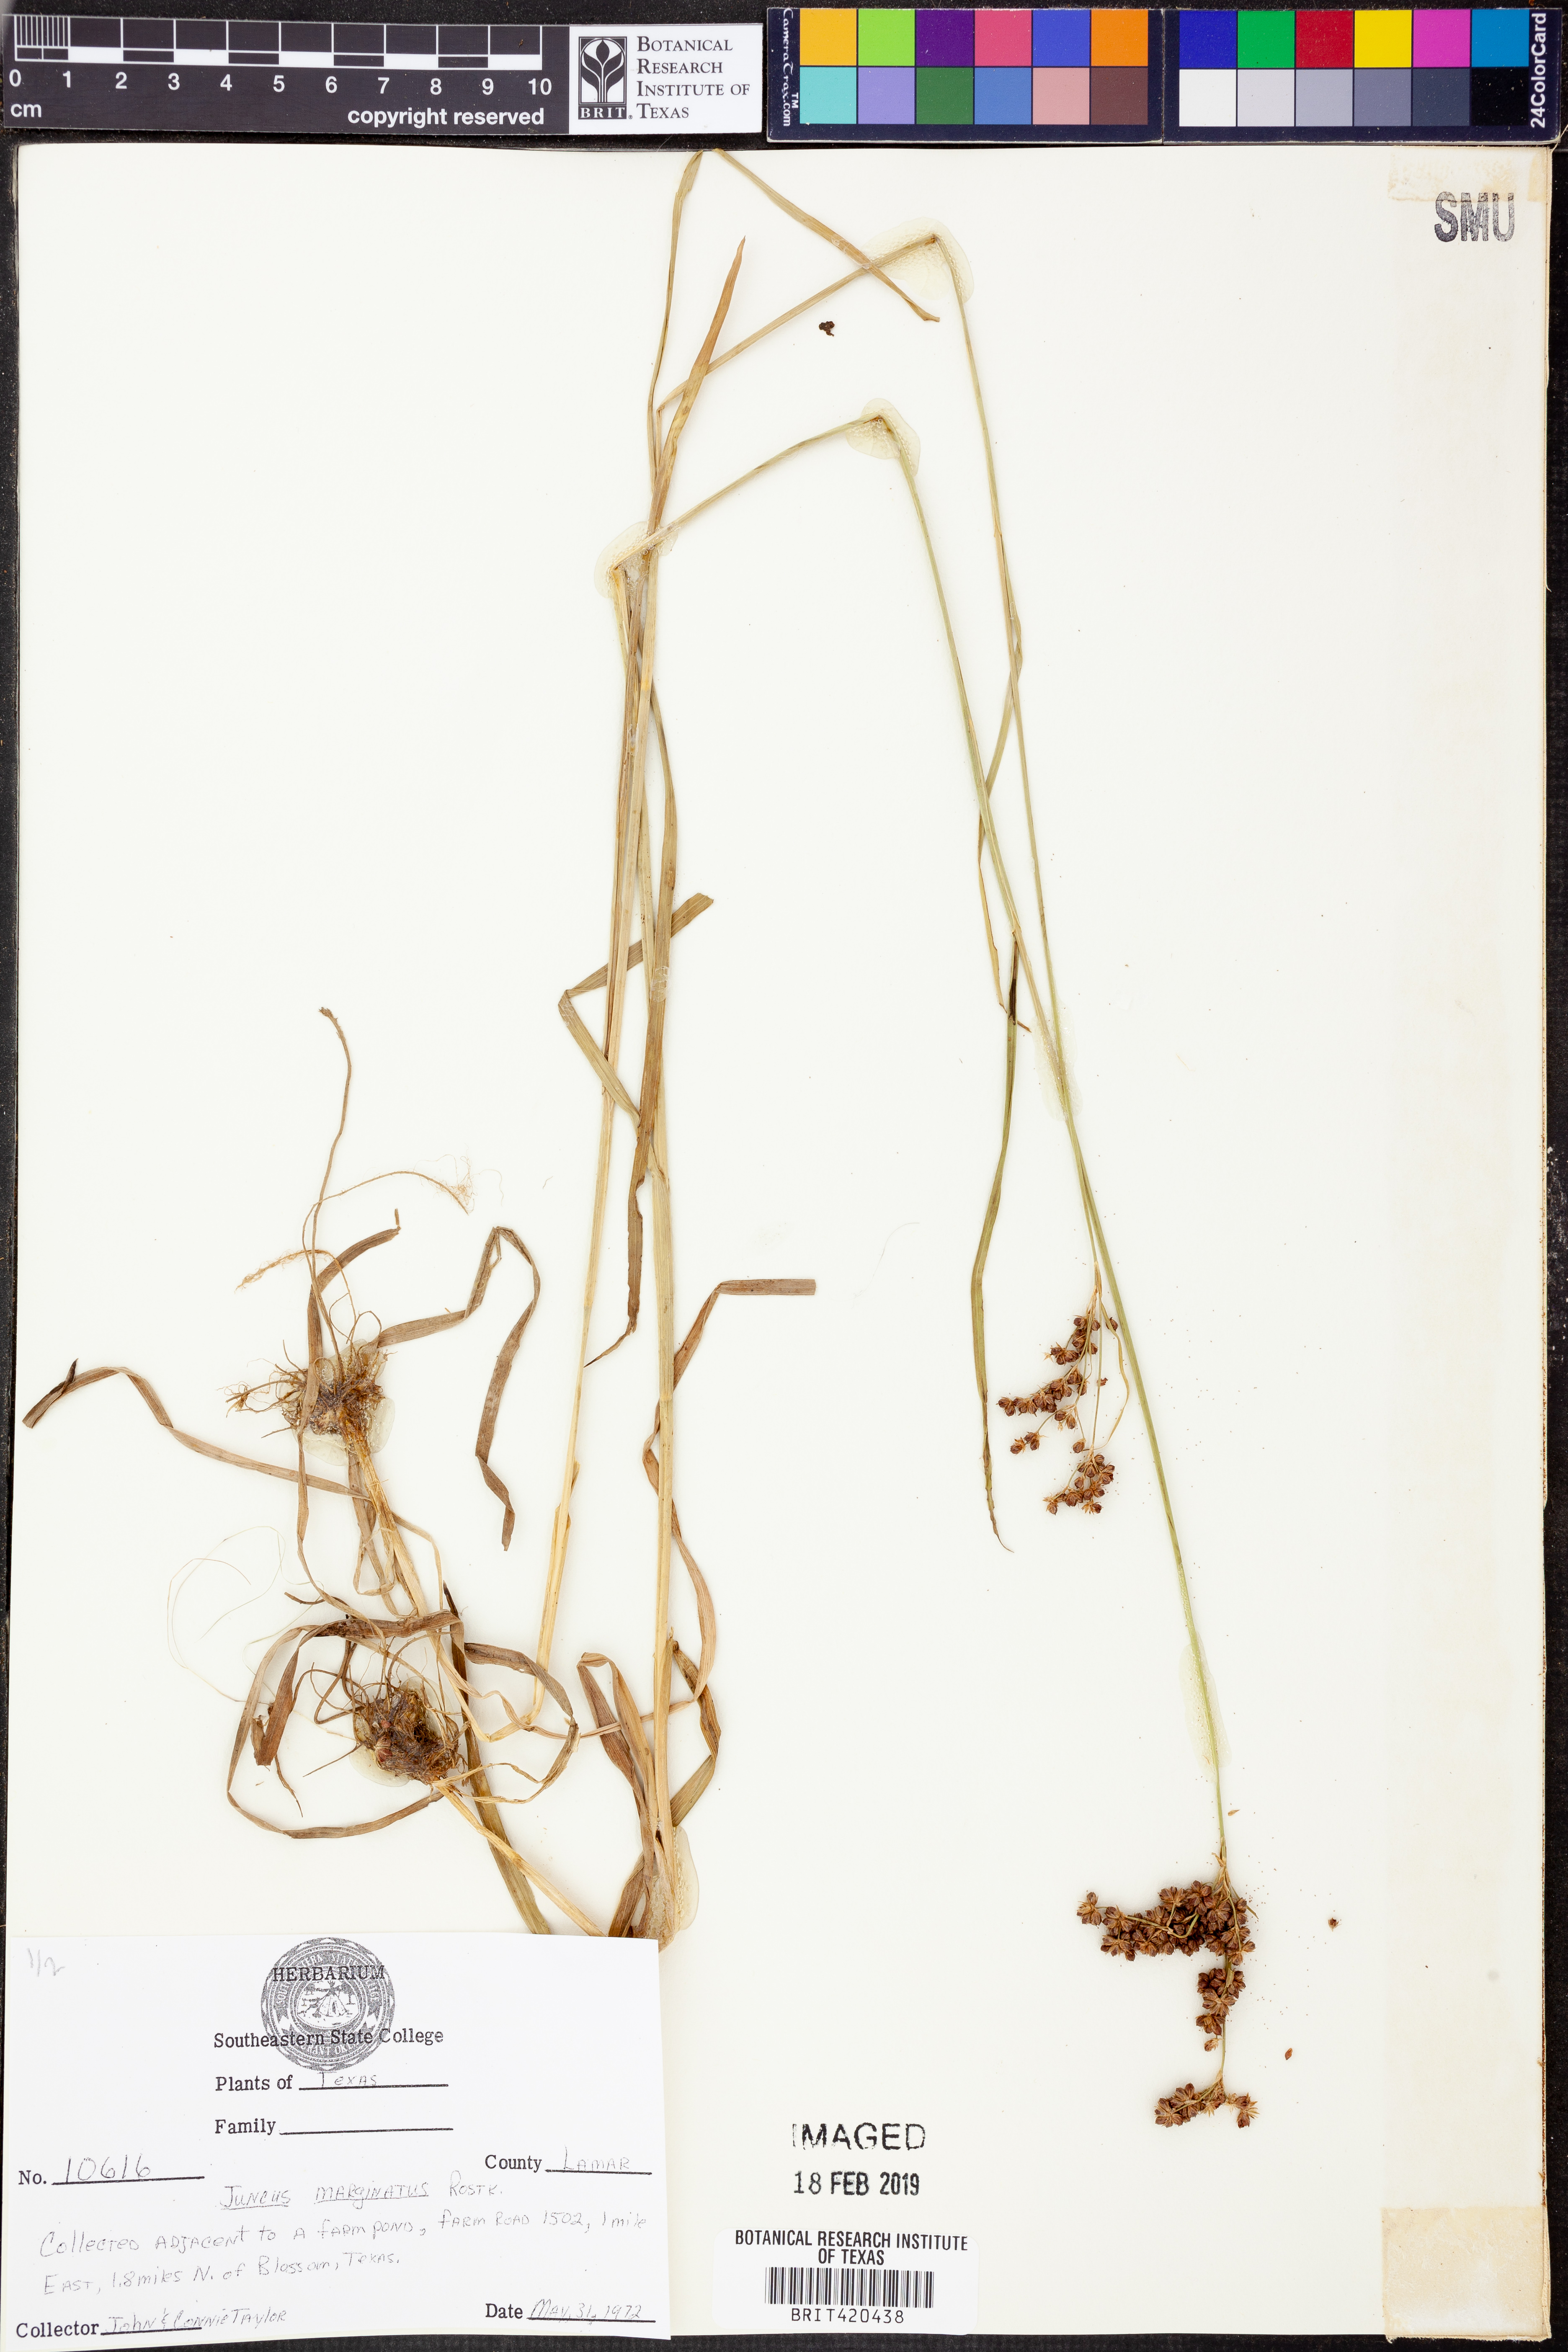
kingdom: Plantae
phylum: Tracheophyta
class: Liliopsida
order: Poales
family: Juncaceae
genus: Juncus
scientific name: Juncus marginatus
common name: Grass-leaf rush
